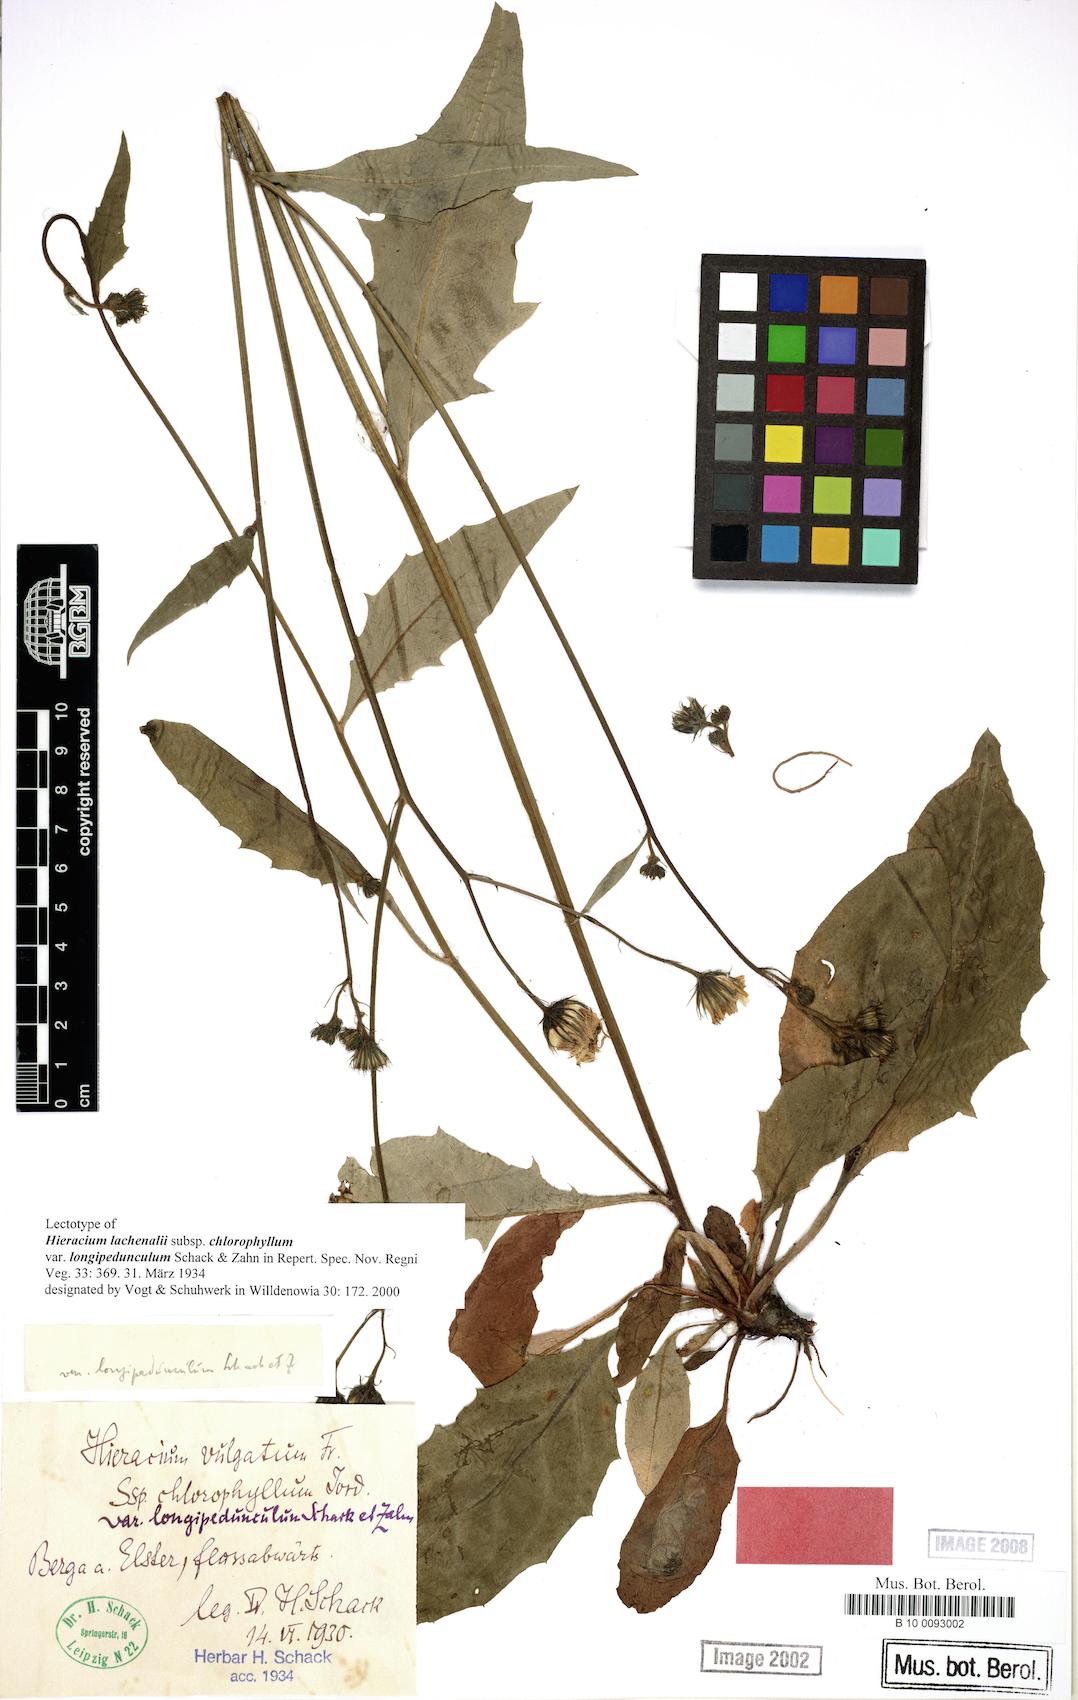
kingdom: Plantae
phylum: Tracheophyta
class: Magnoliopsida
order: Asterales
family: Asteraceae
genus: Hieracium
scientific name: Hieracium lachenalii
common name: Common hawkweed
